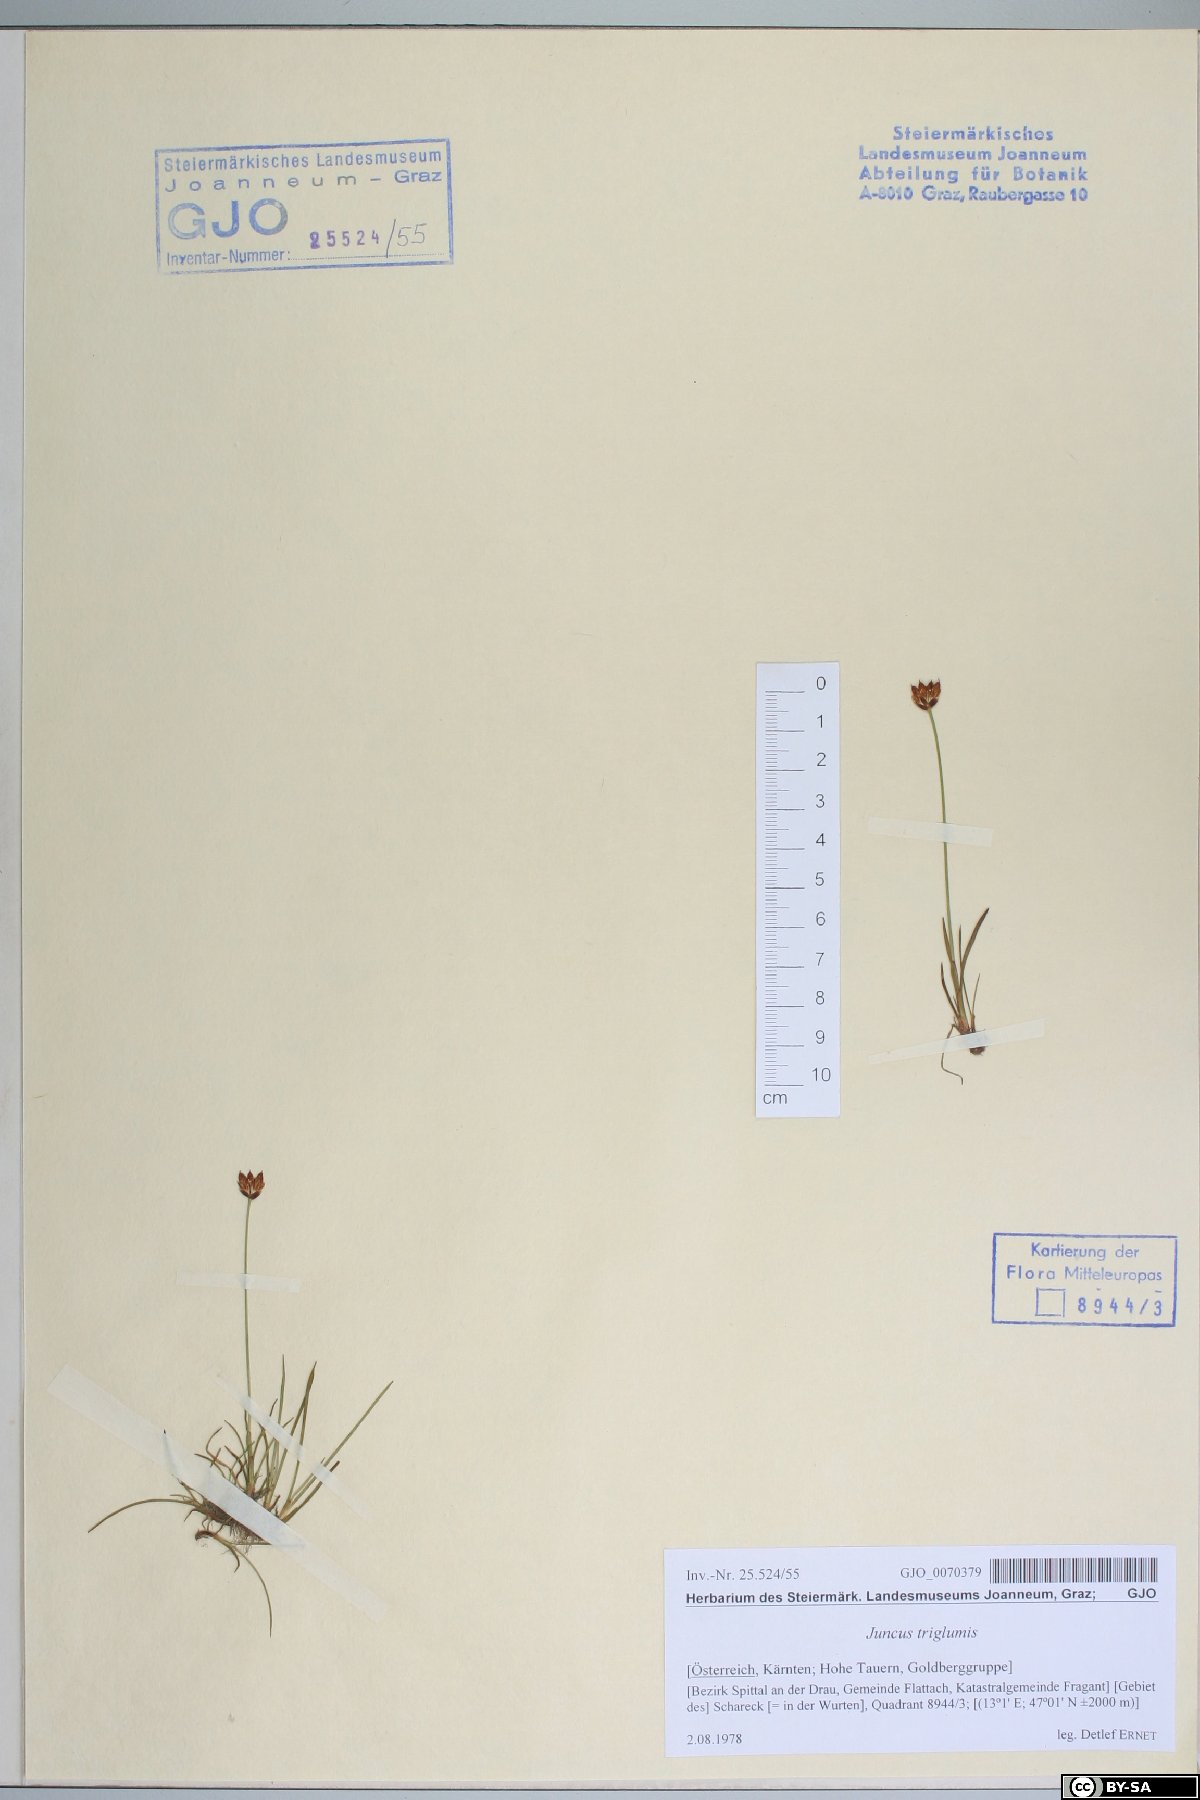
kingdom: Plantae
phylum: Tracheophyta
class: Liliopsida
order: Poales
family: Juncaceae
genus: Juncus
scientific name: Juncus triglumis
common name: Three-flowered rush
